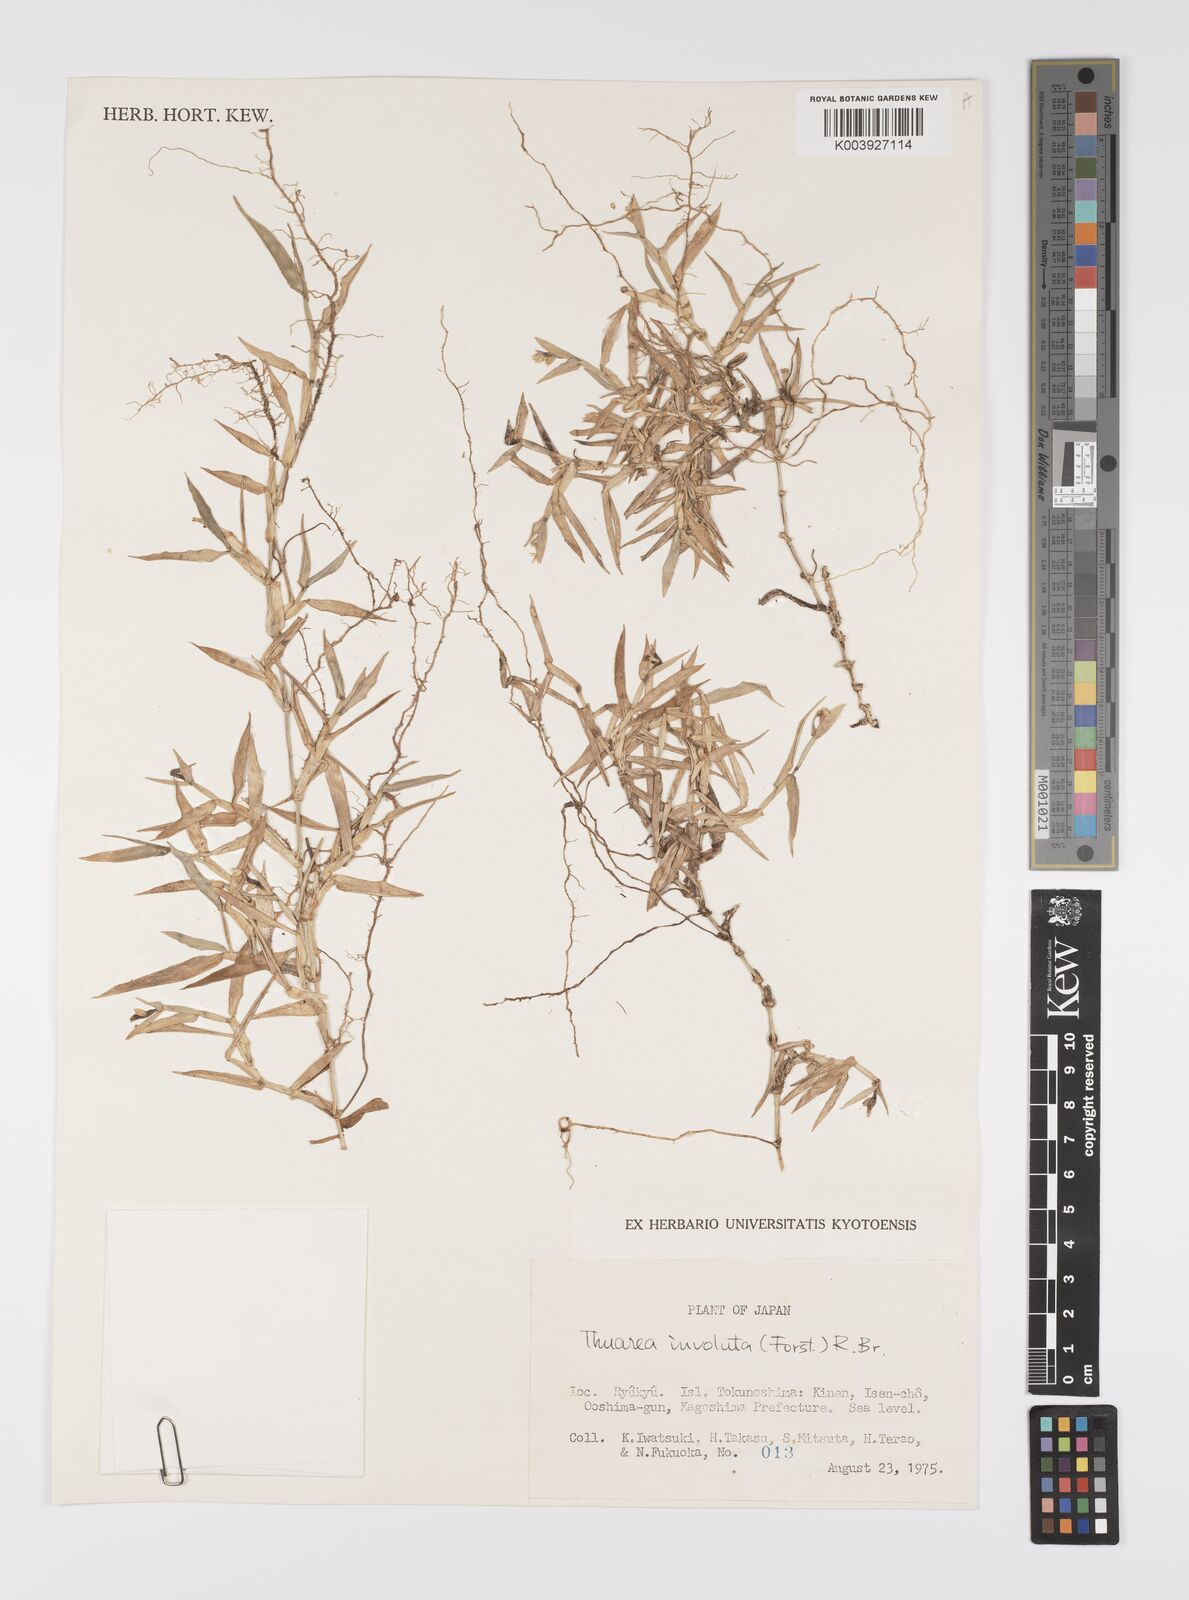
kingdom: Plantae
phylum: Tracheophyta
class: Liliopsida
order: Poales
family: Poaceae
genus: Thuarea
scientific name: Thuarea involuta
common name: Tropical beach grass
